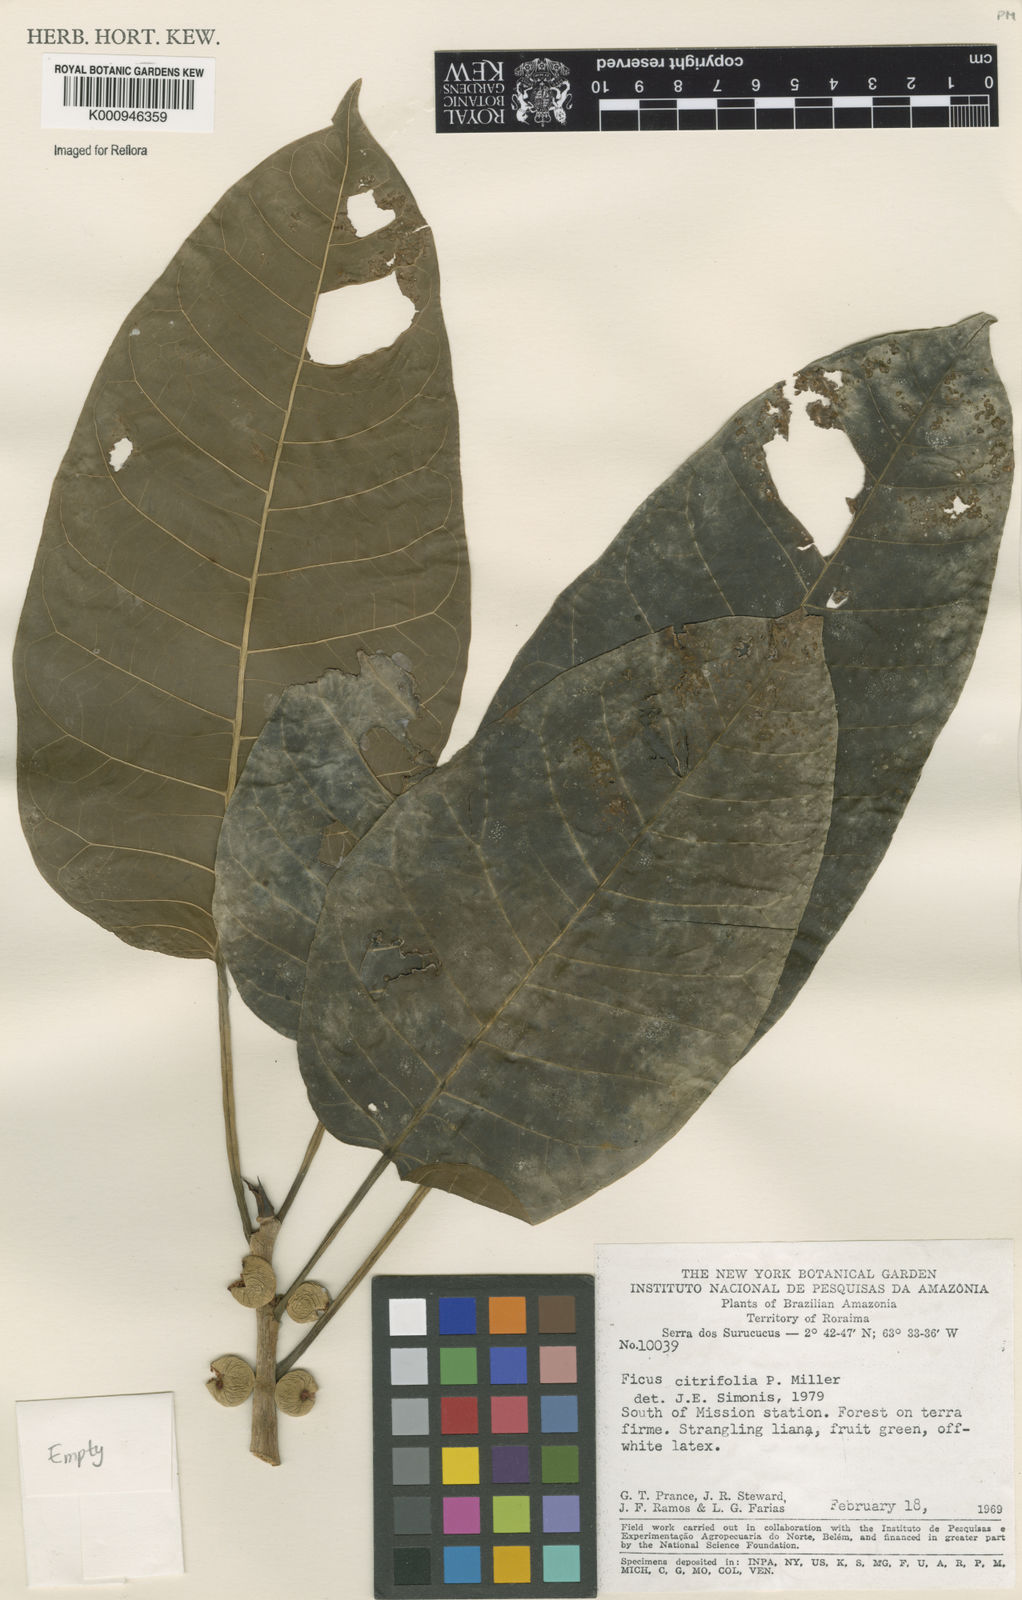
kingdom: Plantae
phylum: Tracheophyta
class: Magnoliopsida
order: Rosales
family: Moraceae
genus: Ficus
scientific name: Ficus citrifolia
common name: Strangler fig
